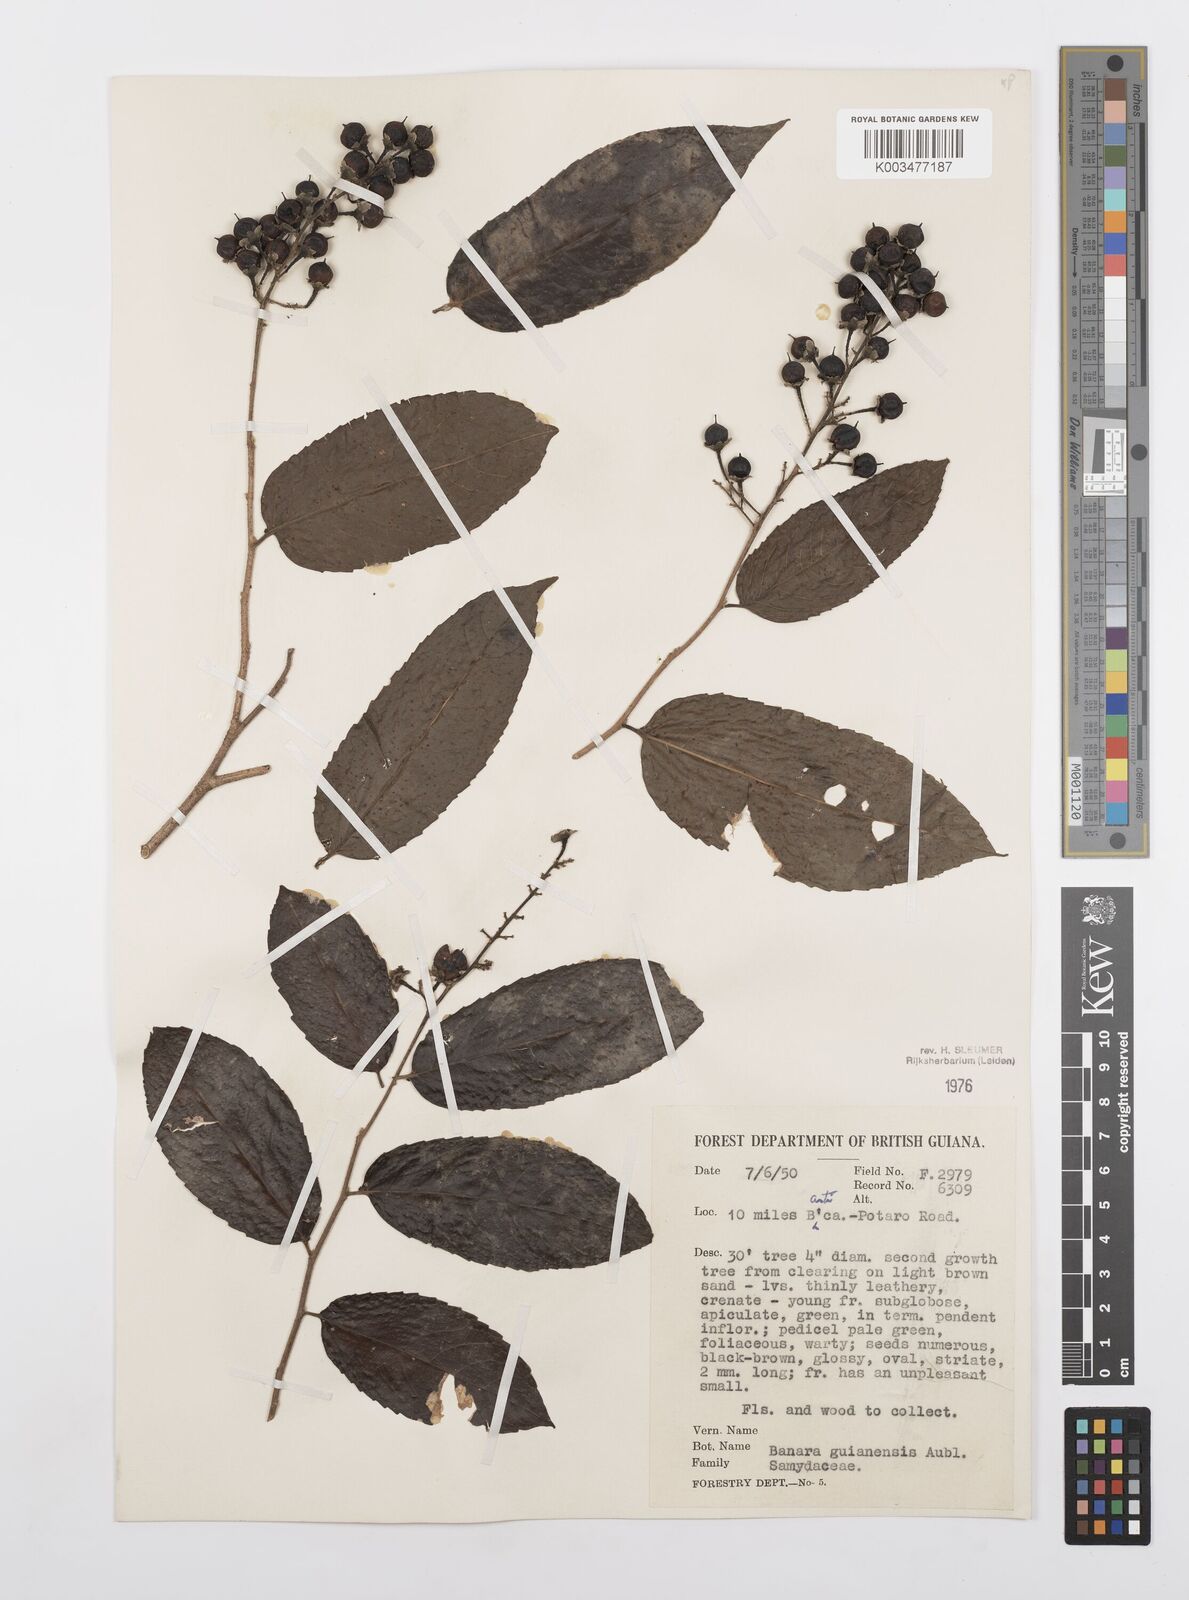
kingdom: Plantae
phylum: Tracheophyta
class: Magnoliopsida
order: Malpighiales
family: Salicaceae
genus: Banara
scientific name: Banara guianensis
